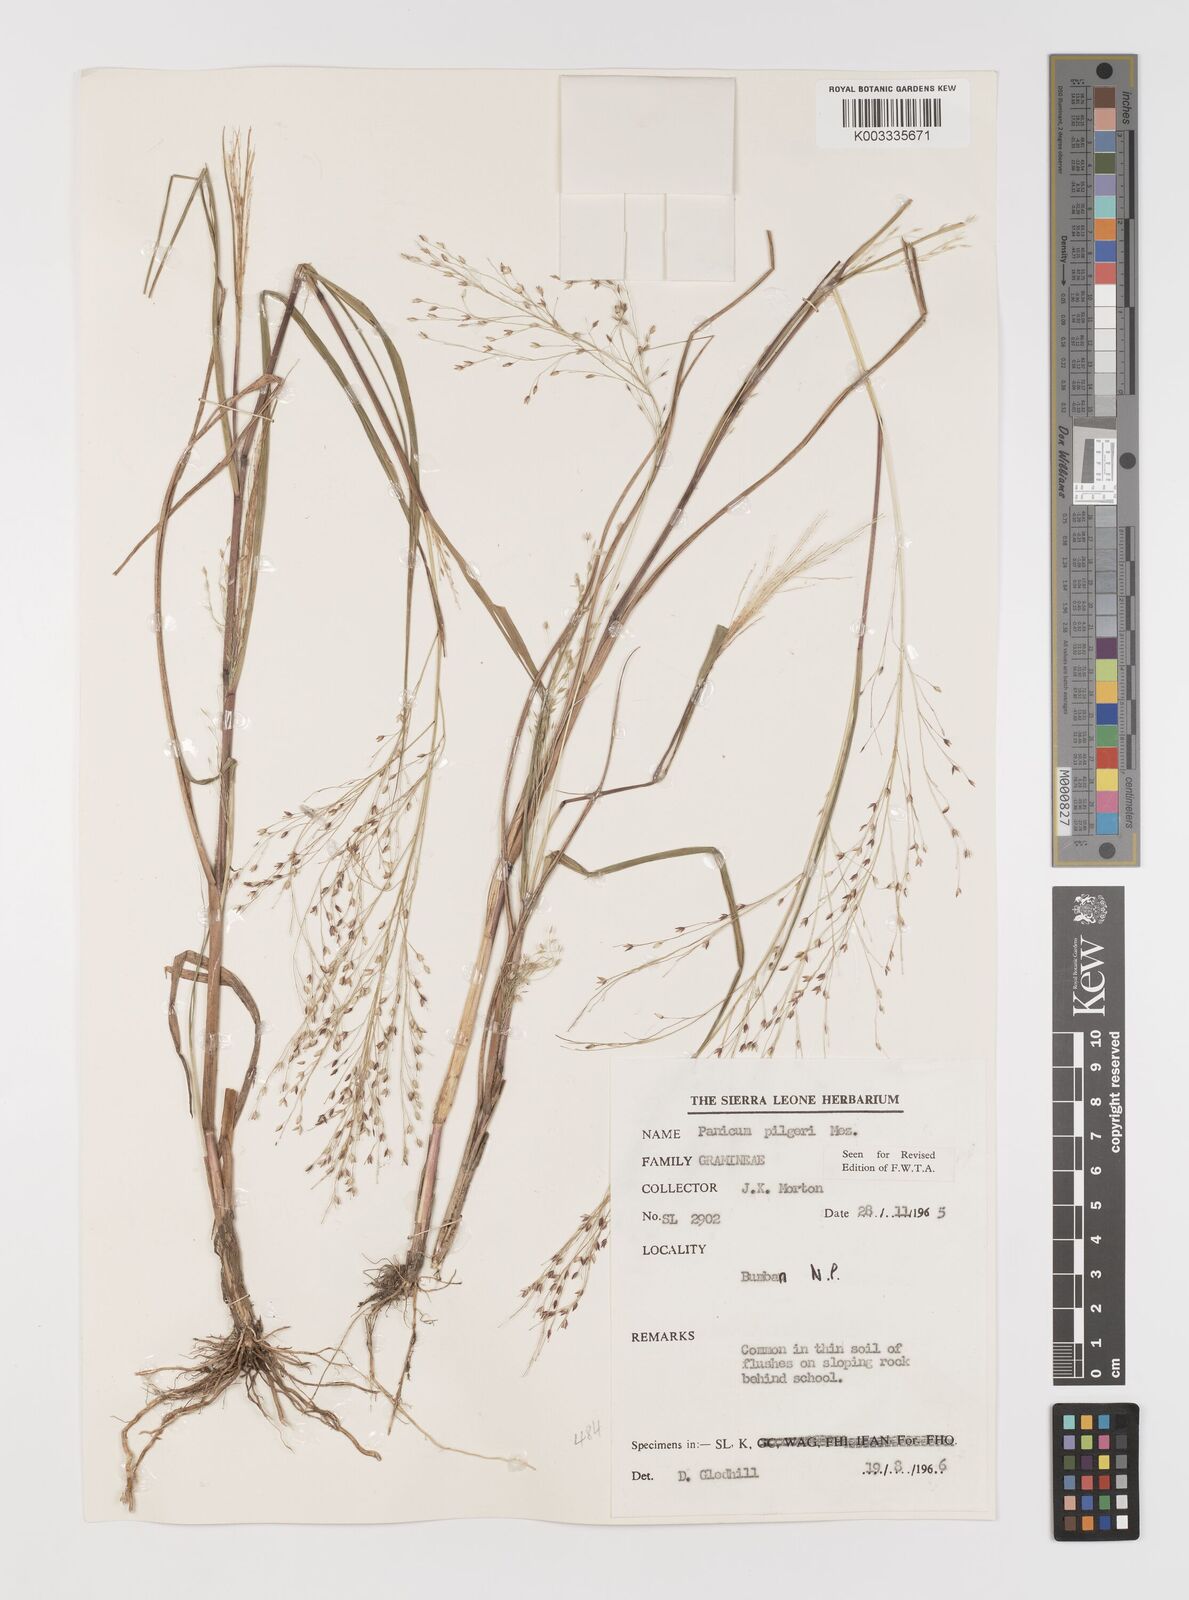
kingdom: Plantae
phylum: Tracheophyta
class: Liliopsida
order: Poales
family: Poaceae
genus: Panicum
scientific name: Panicum
